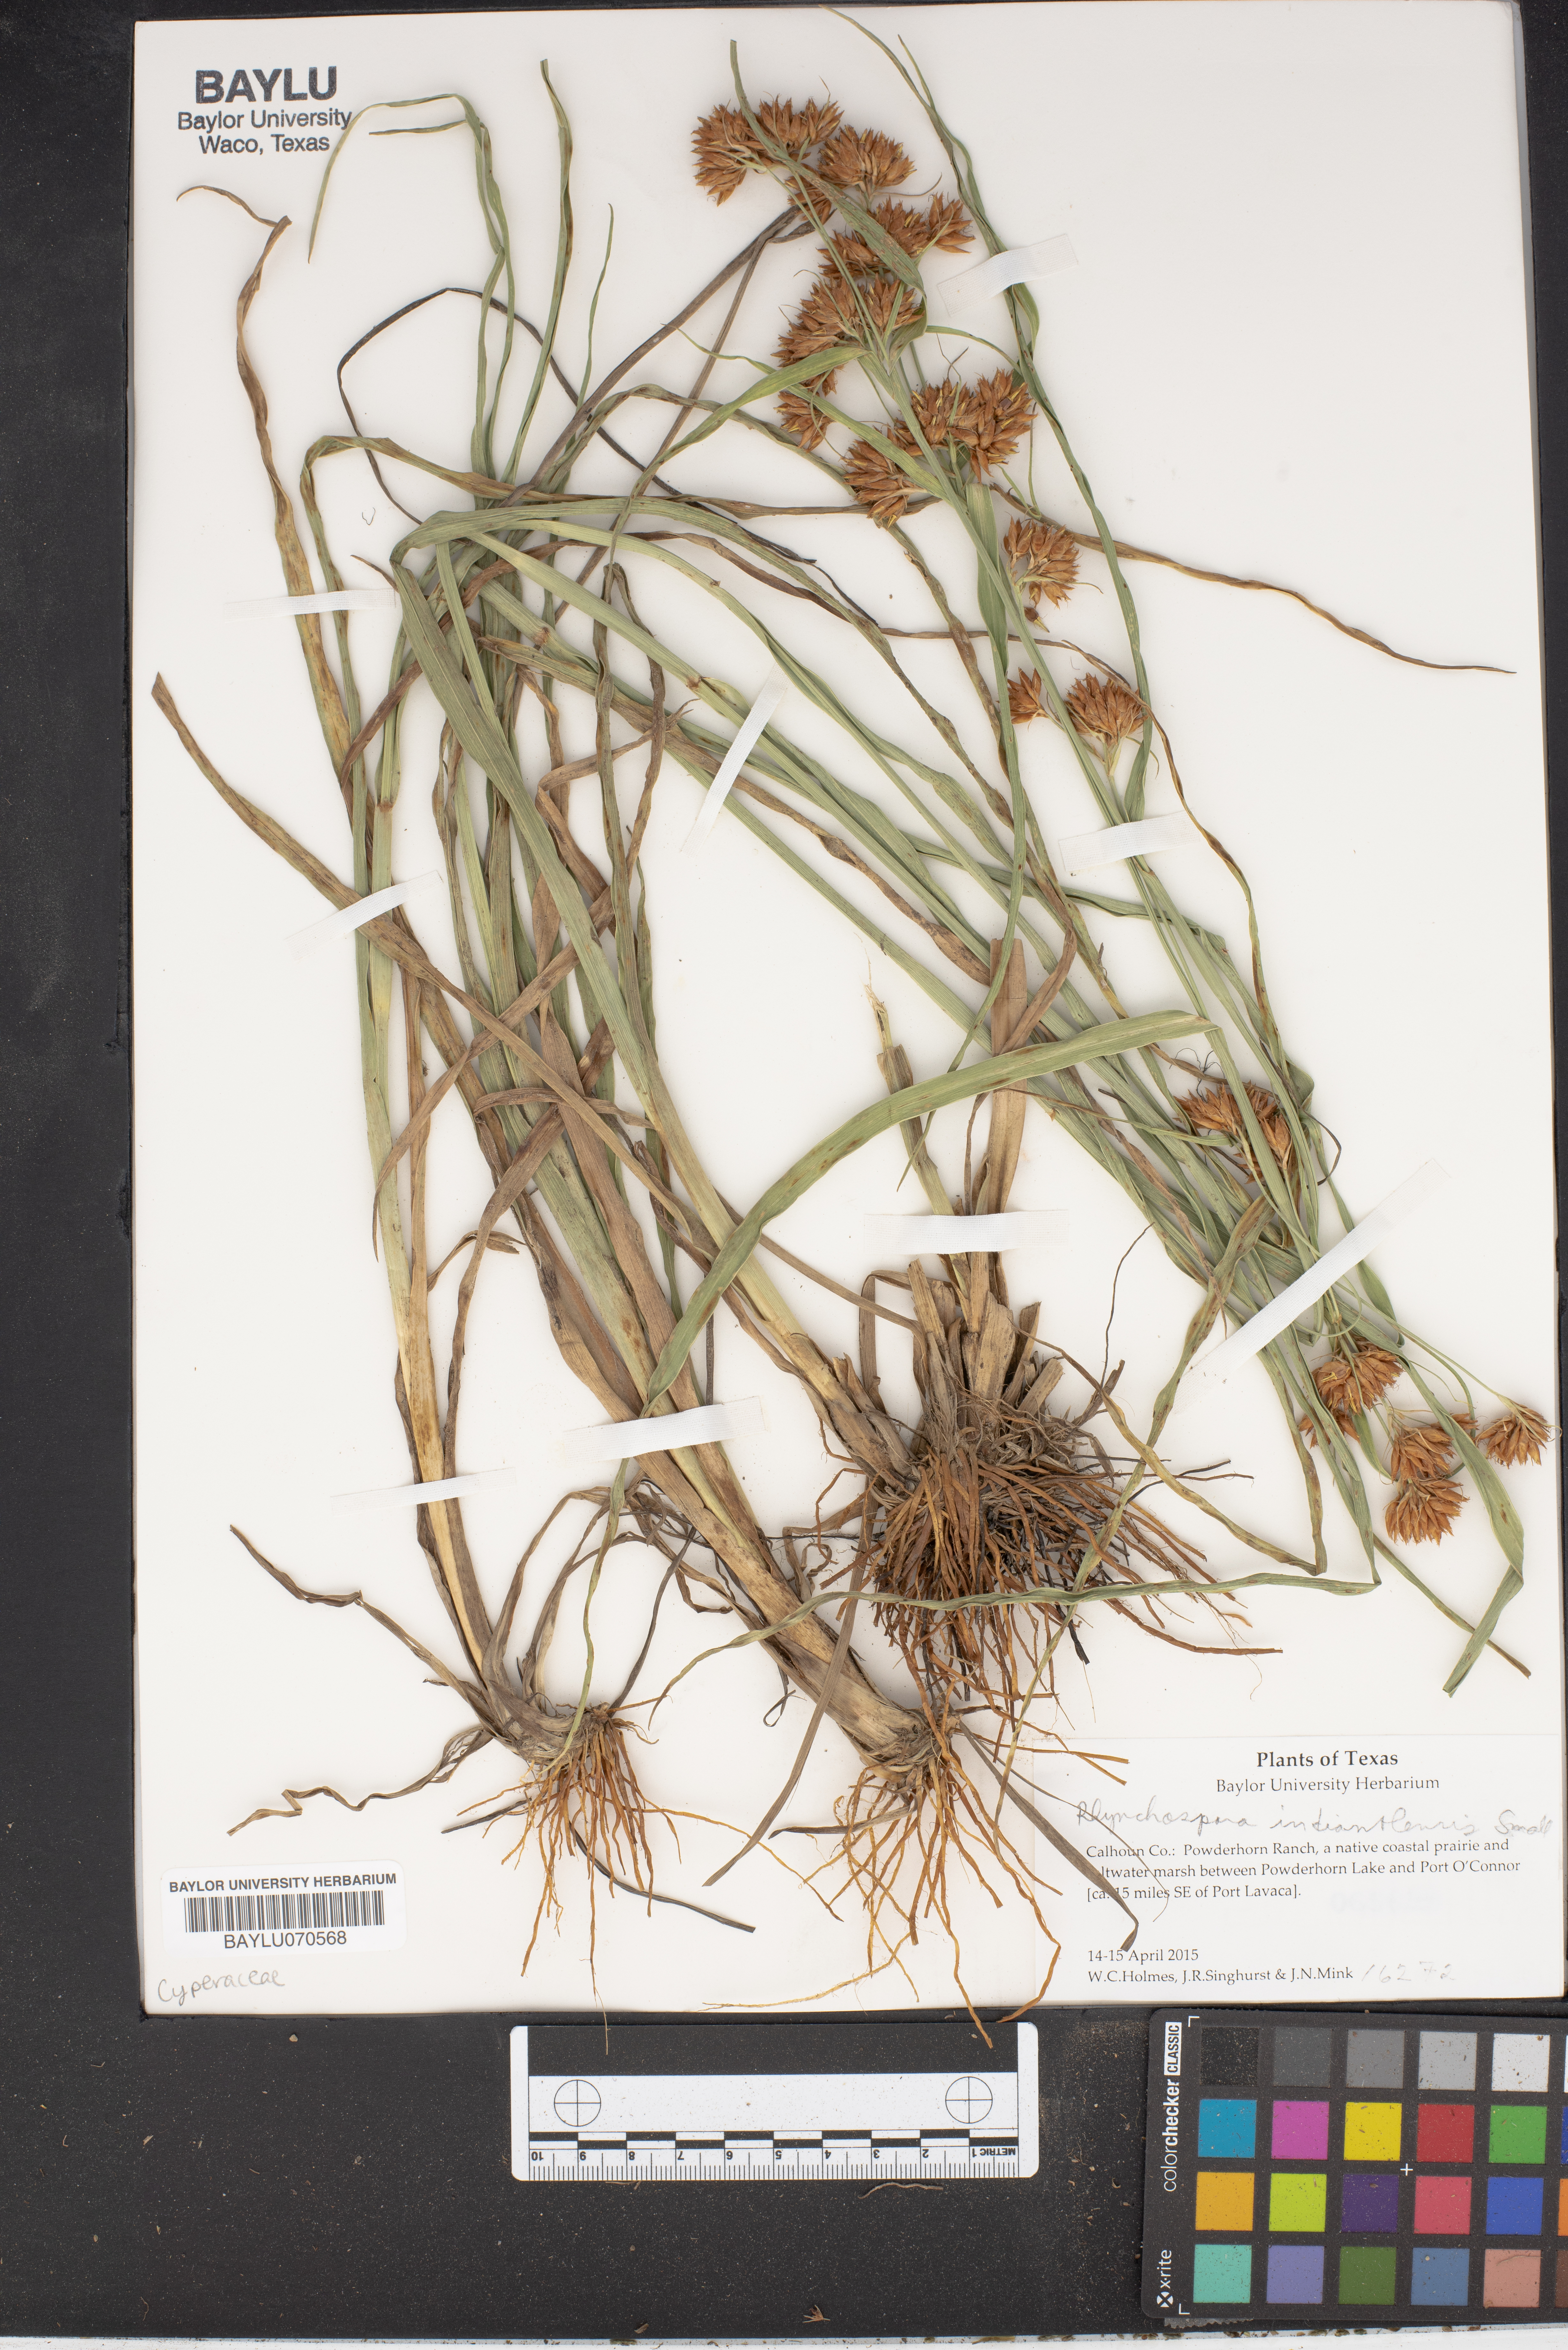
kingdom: Plantae
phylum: Tracheophyta
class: Liliopsida
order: Poales
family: Cyperaceae
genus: Rhynchospora
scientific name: Rhynchospora scutellata
